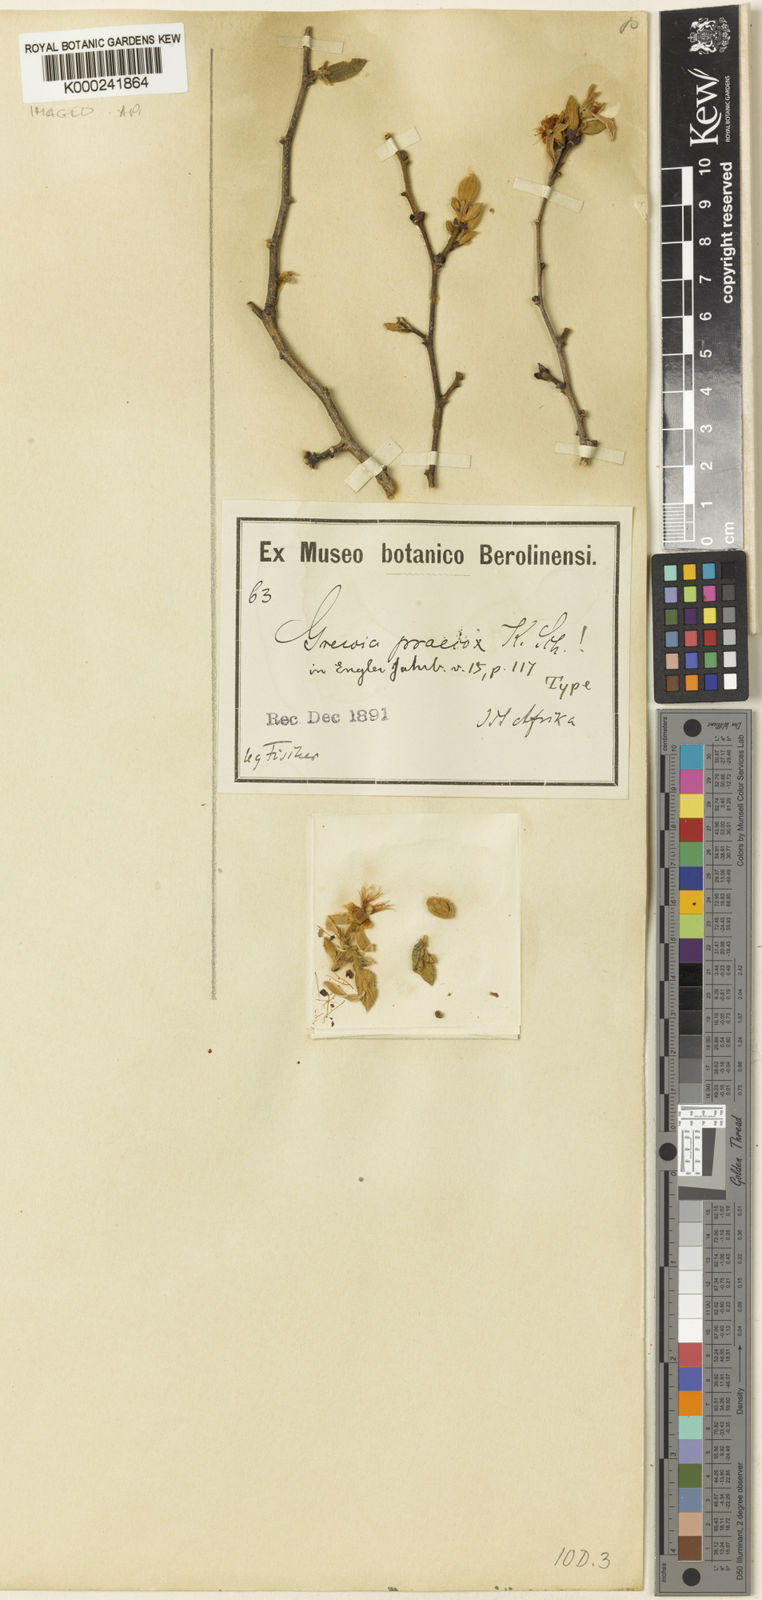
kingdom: Plantae
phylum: Tracheophyta
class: Magnoliopsida
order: Malvales
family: Malvaceae
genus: Grewia
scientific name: Grewia praecox
